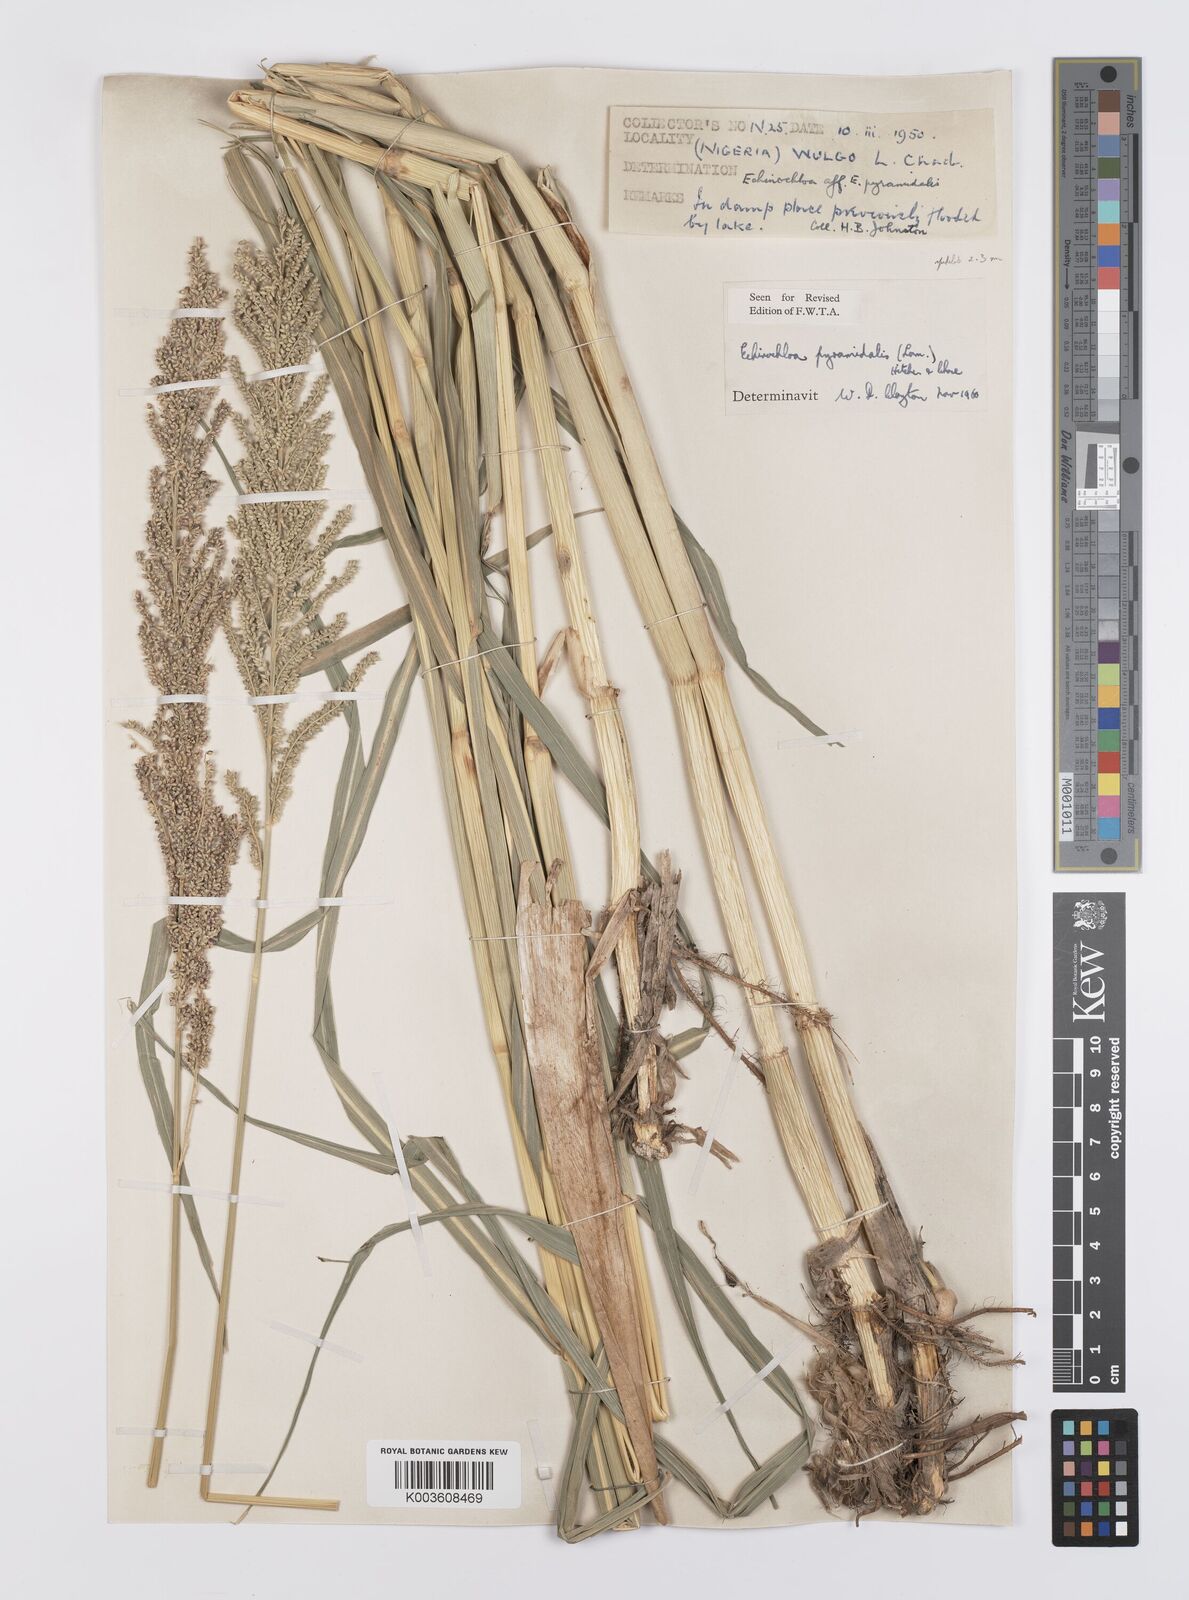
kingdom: Plantae
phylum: Tracheophyta
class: Liliopsida
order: Poales
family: Poaceae
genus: Echinochloa
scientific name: Echinochloa pyramidalis
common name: Antelope grass
